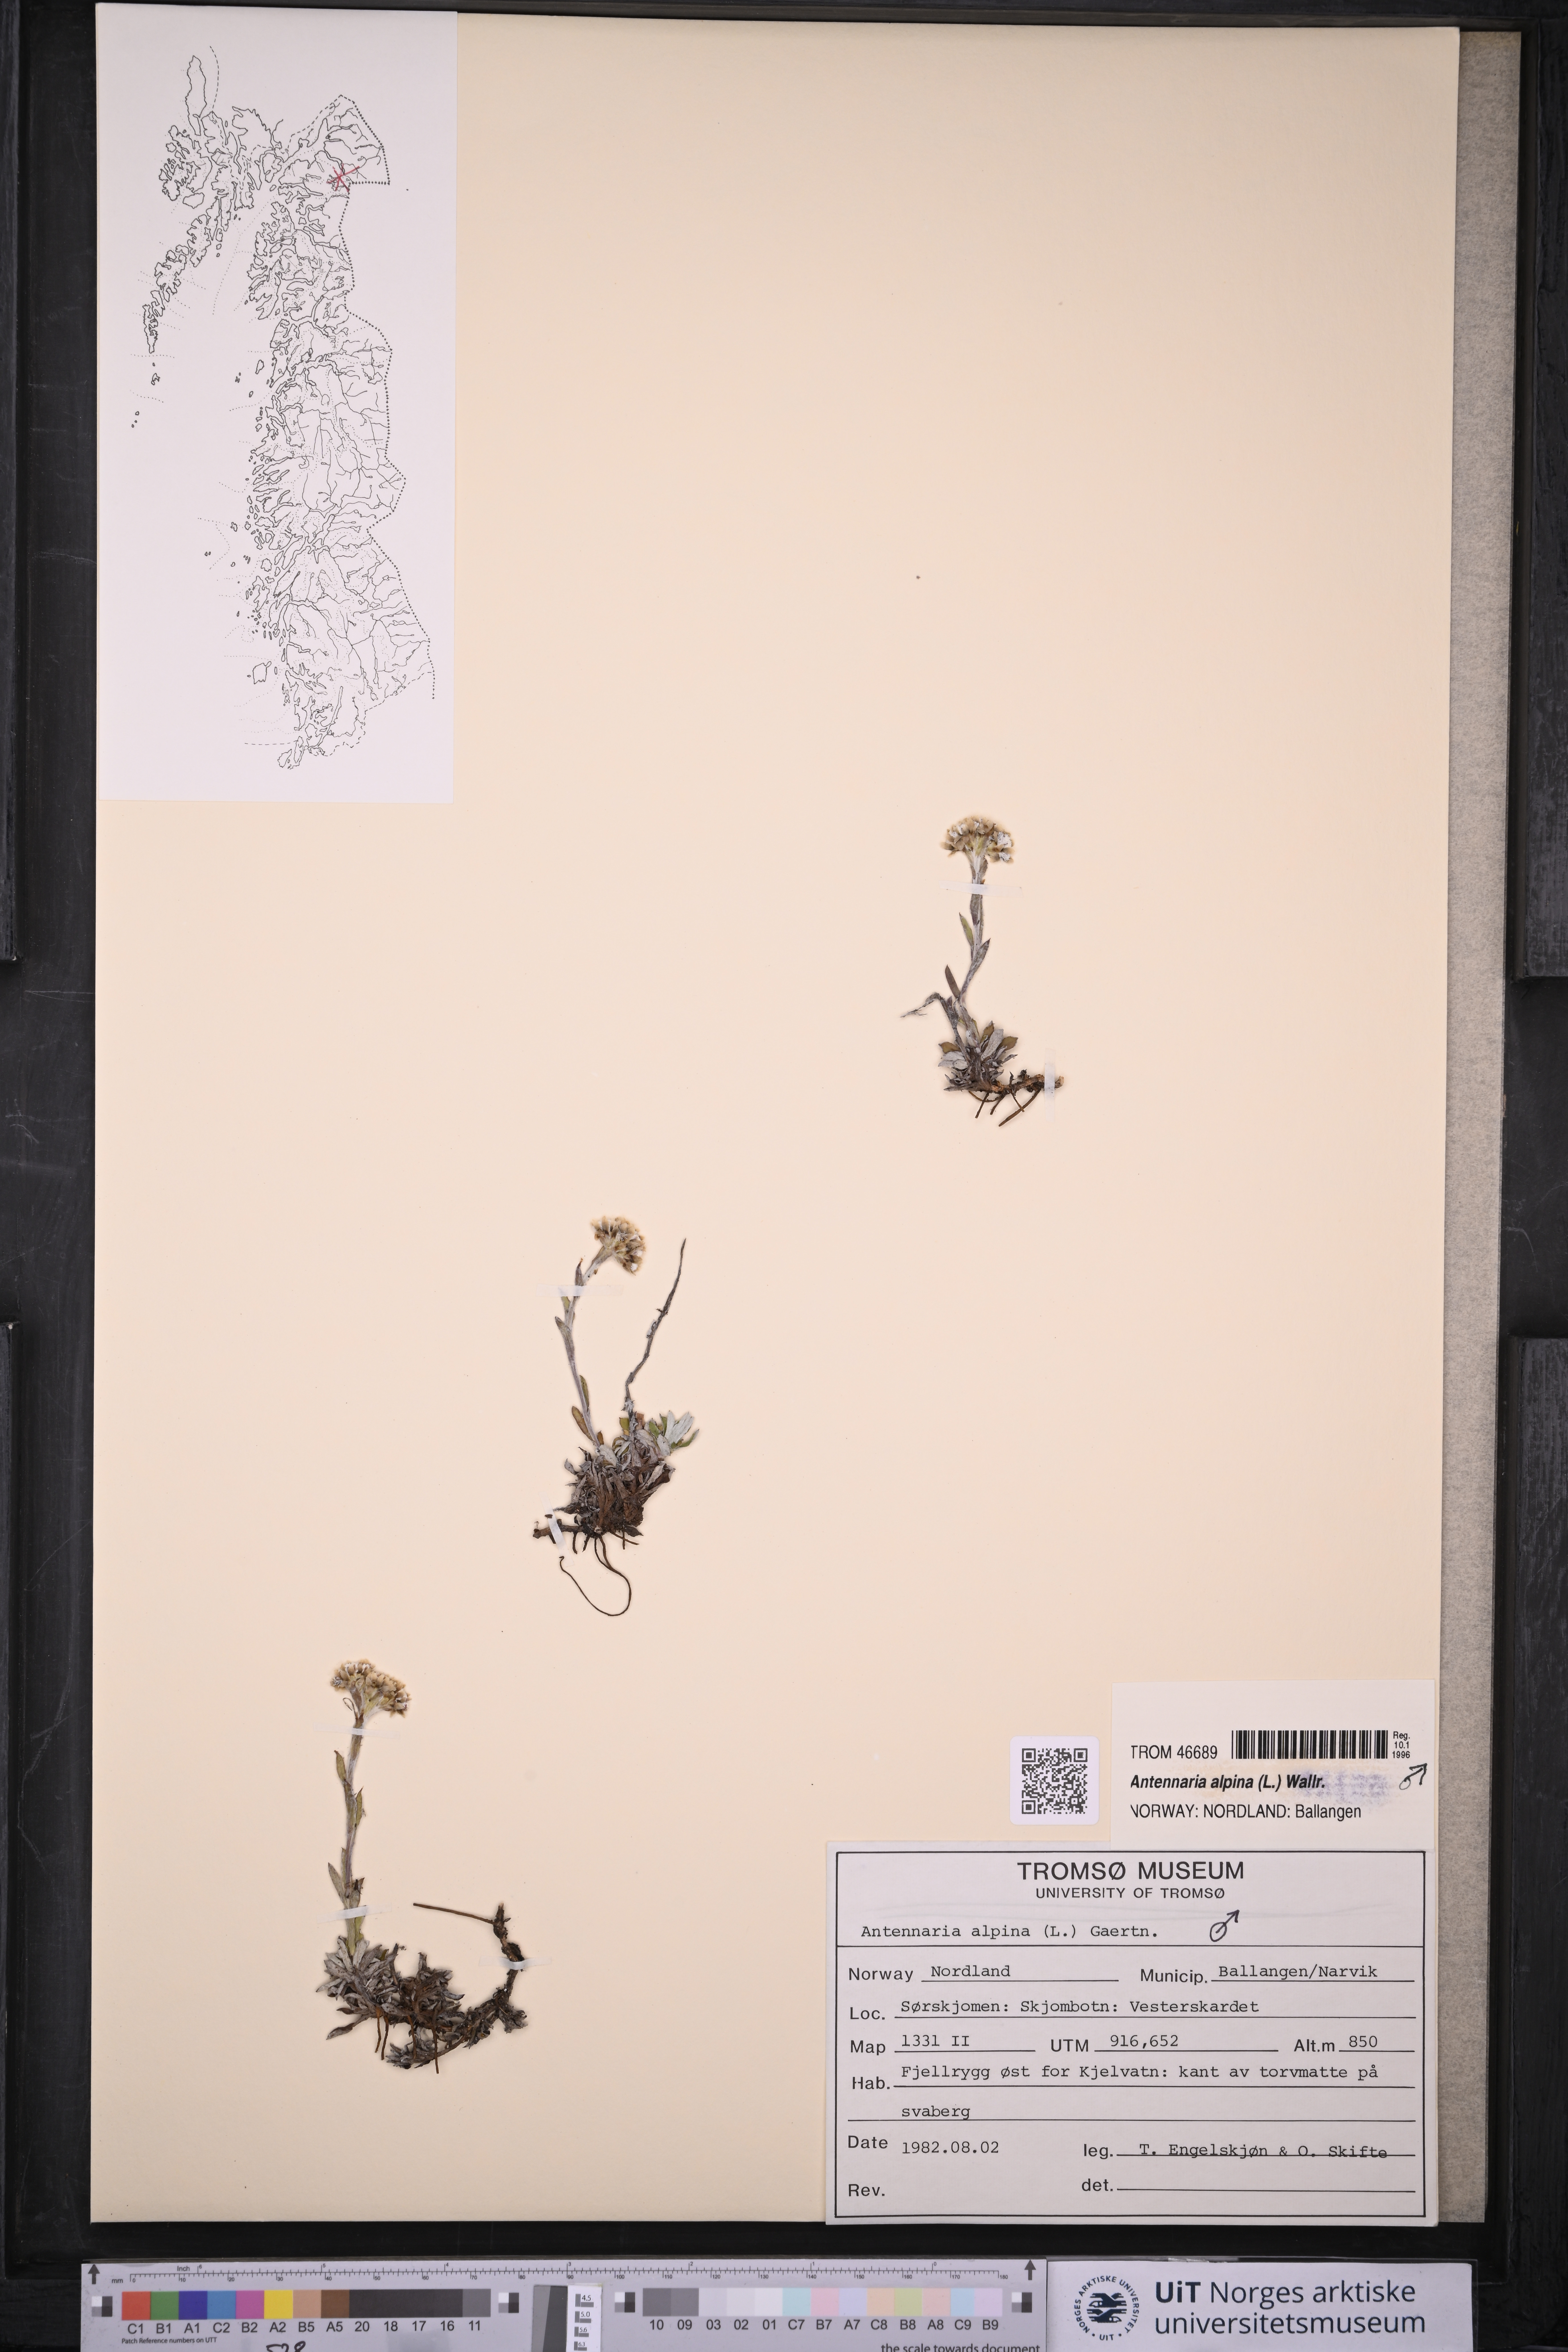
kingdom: Plantae
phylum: Tracheophyta
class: Magnoliopsida
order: Asterales
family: Asteraceae
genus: Antennaria
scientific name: Antennaria alpina
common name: Alpine pussytoes
